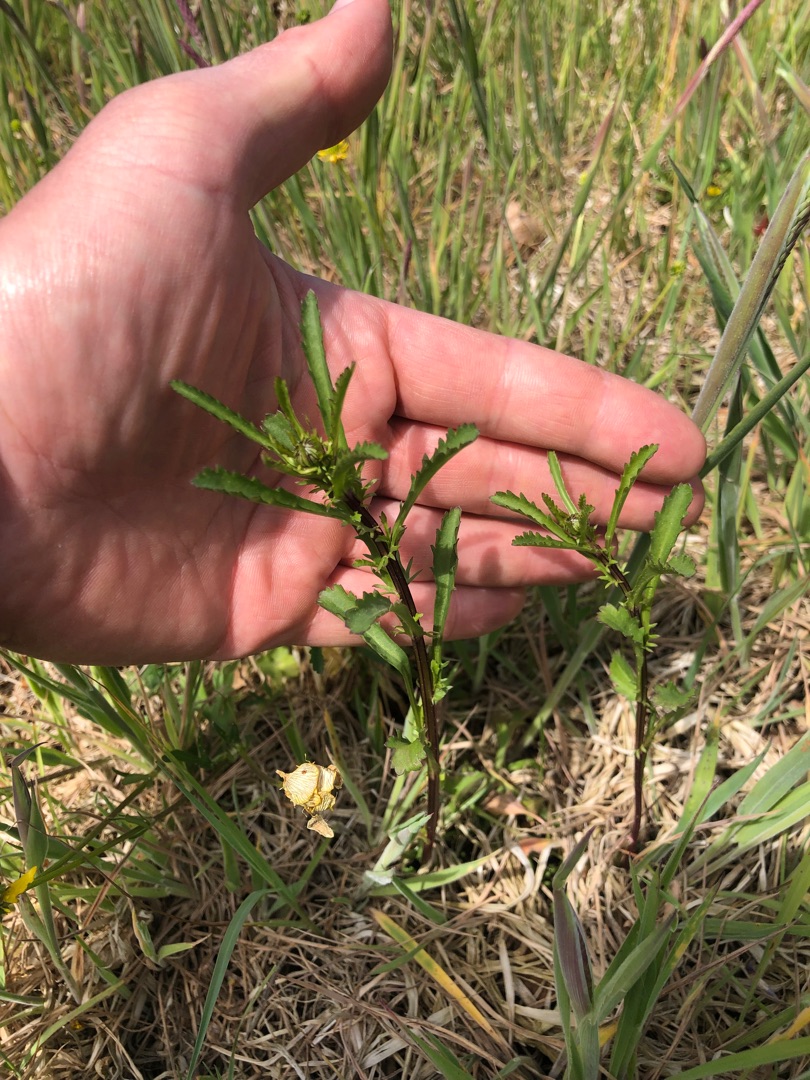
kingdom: Plantae
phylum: Tracheophyta
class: Magnoliopsida
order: Asterales
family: Asteraceae
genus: Leucanthemum
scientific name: Leucanthemum vulgare
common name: Hvid okseøje
